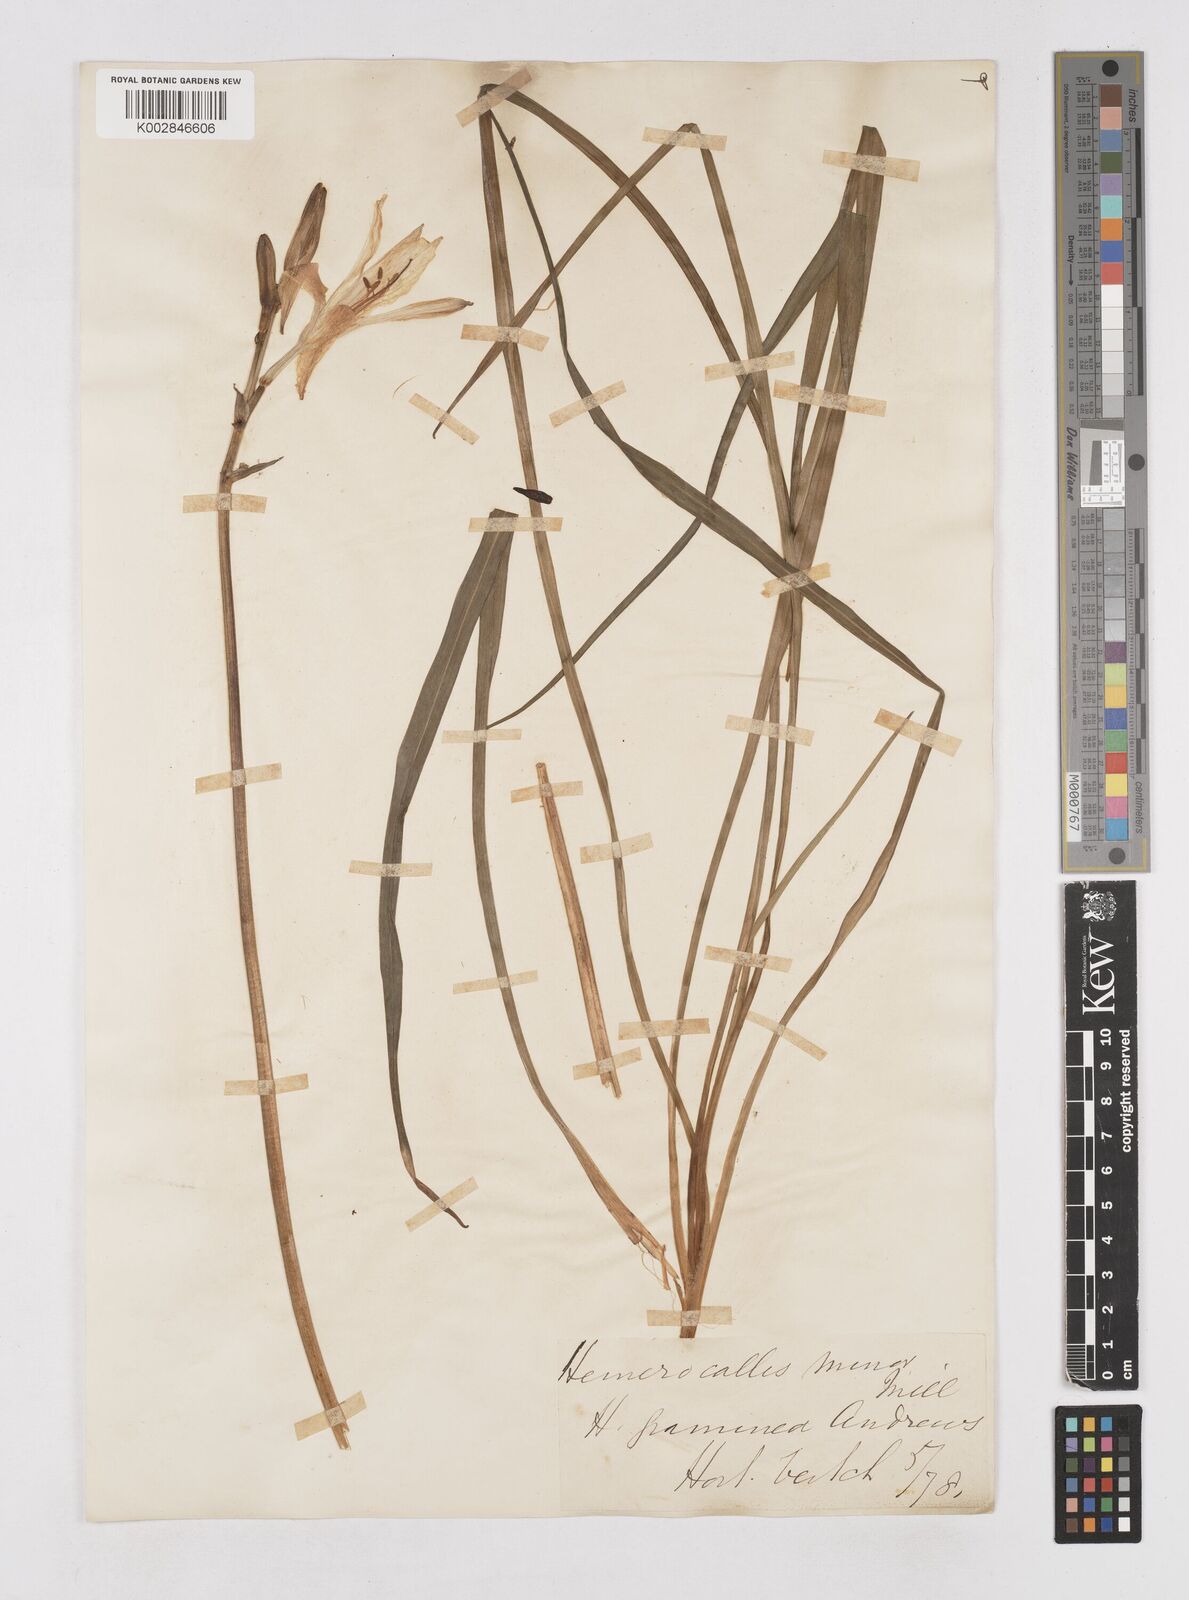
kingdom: Plantae
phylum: Tracheophyta
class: Liliopsida
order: Asparagales
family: Asphodelaceae
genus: Hemerocallis
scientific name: Hemerocallis minor
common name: Small daylily
